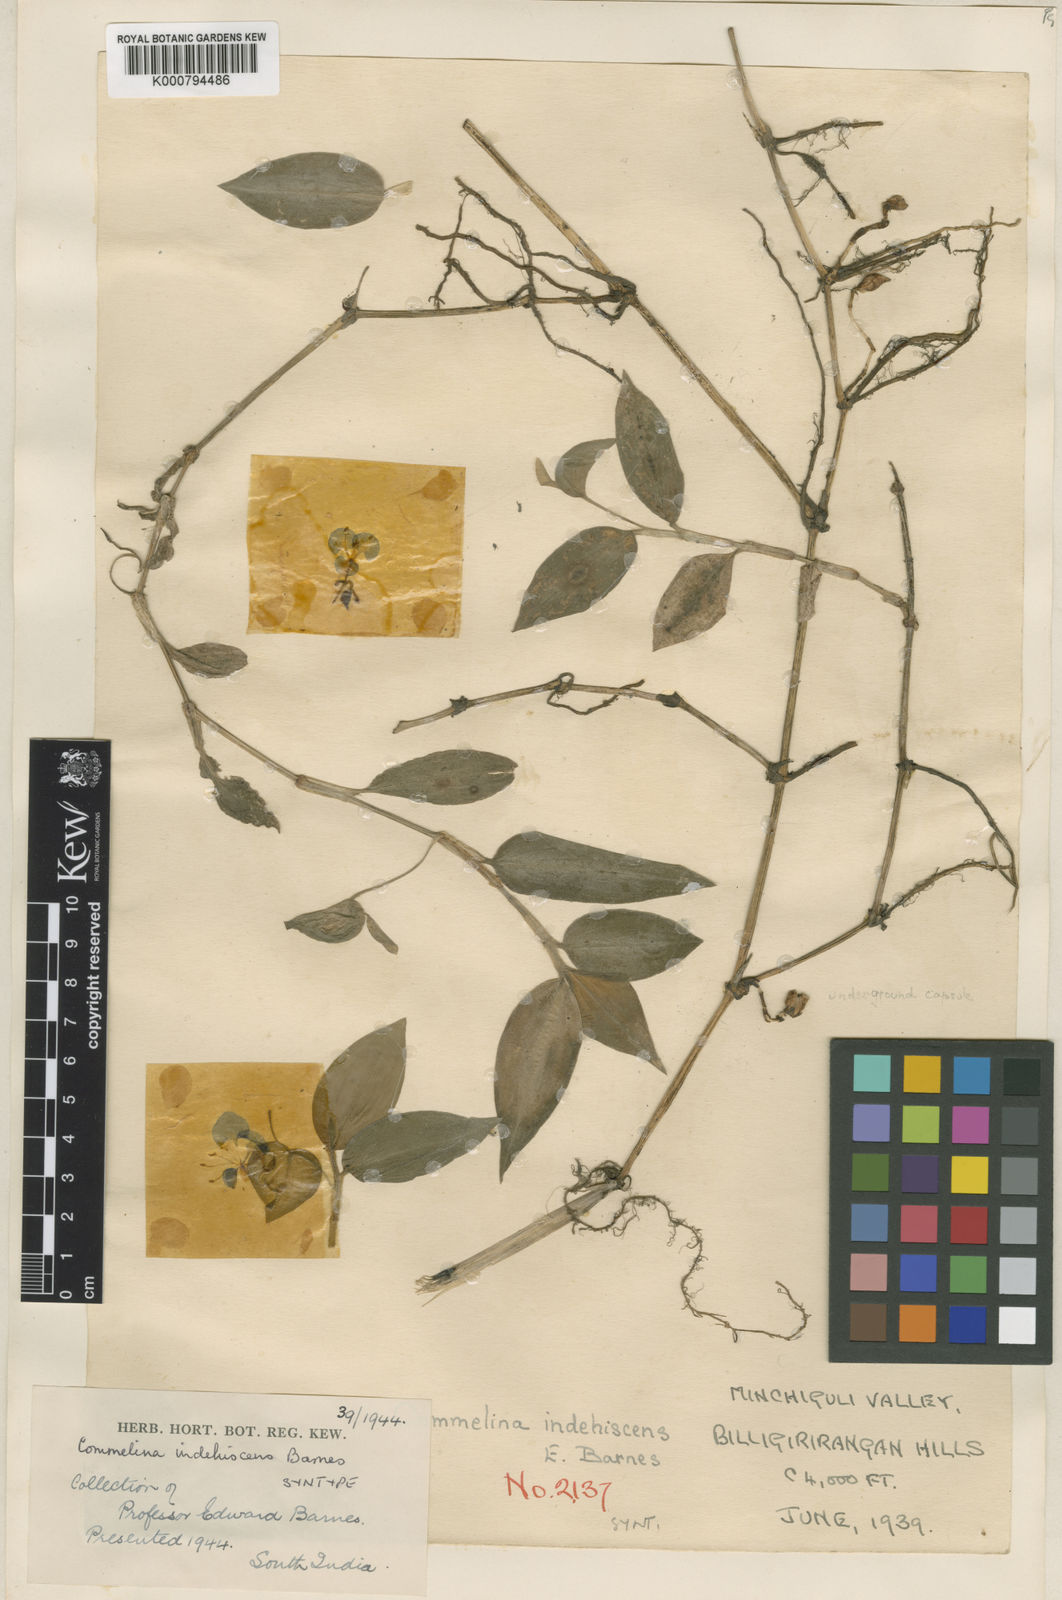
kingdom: Plantae
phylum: Tracheophyta
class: Liliopsida
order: Commelinales
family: Commelinaceae
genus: Commelina
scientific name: Commelina indehiscens
